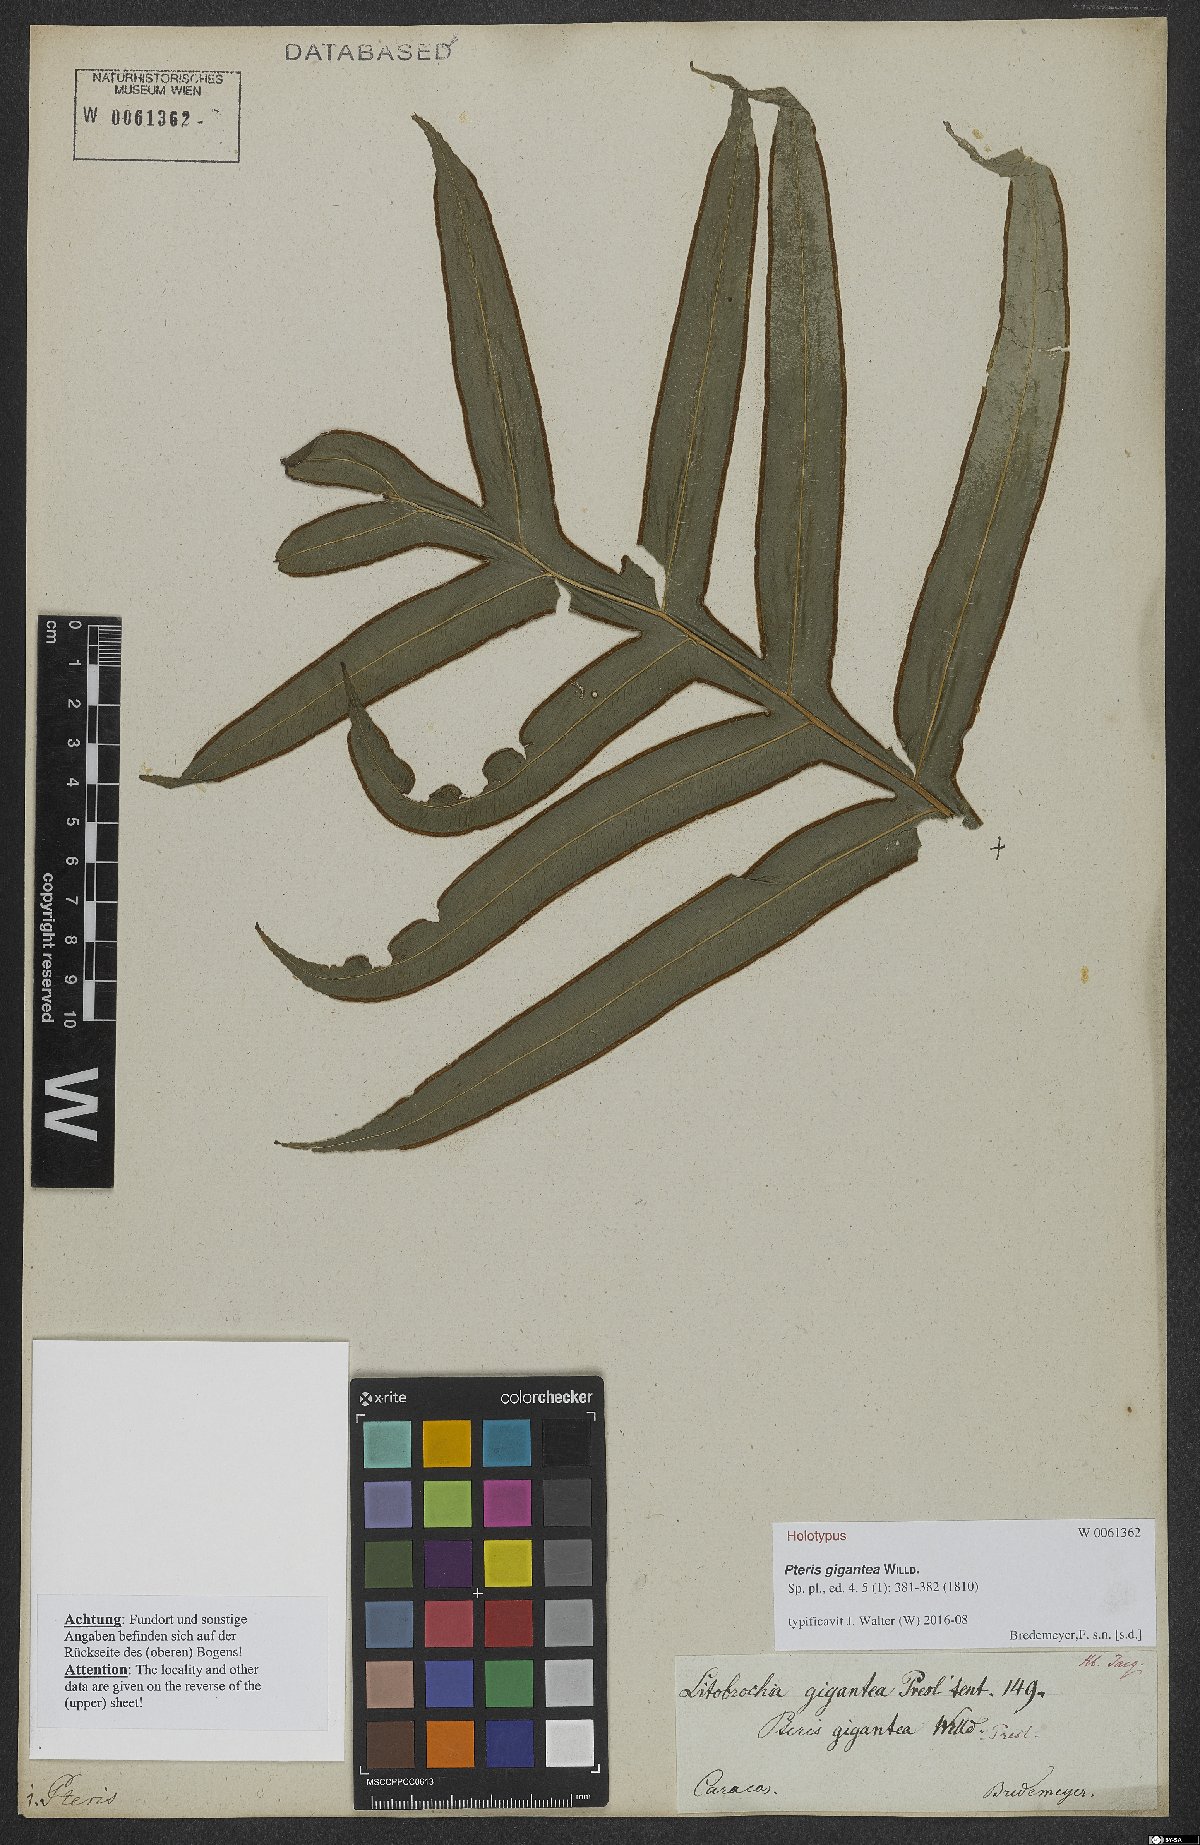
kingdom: Plantae
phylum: Tracheophyta
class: Polypodiopsida
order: Polypodiales
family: Pteridaceae
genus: Pteris
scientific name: Pteris gigantea
